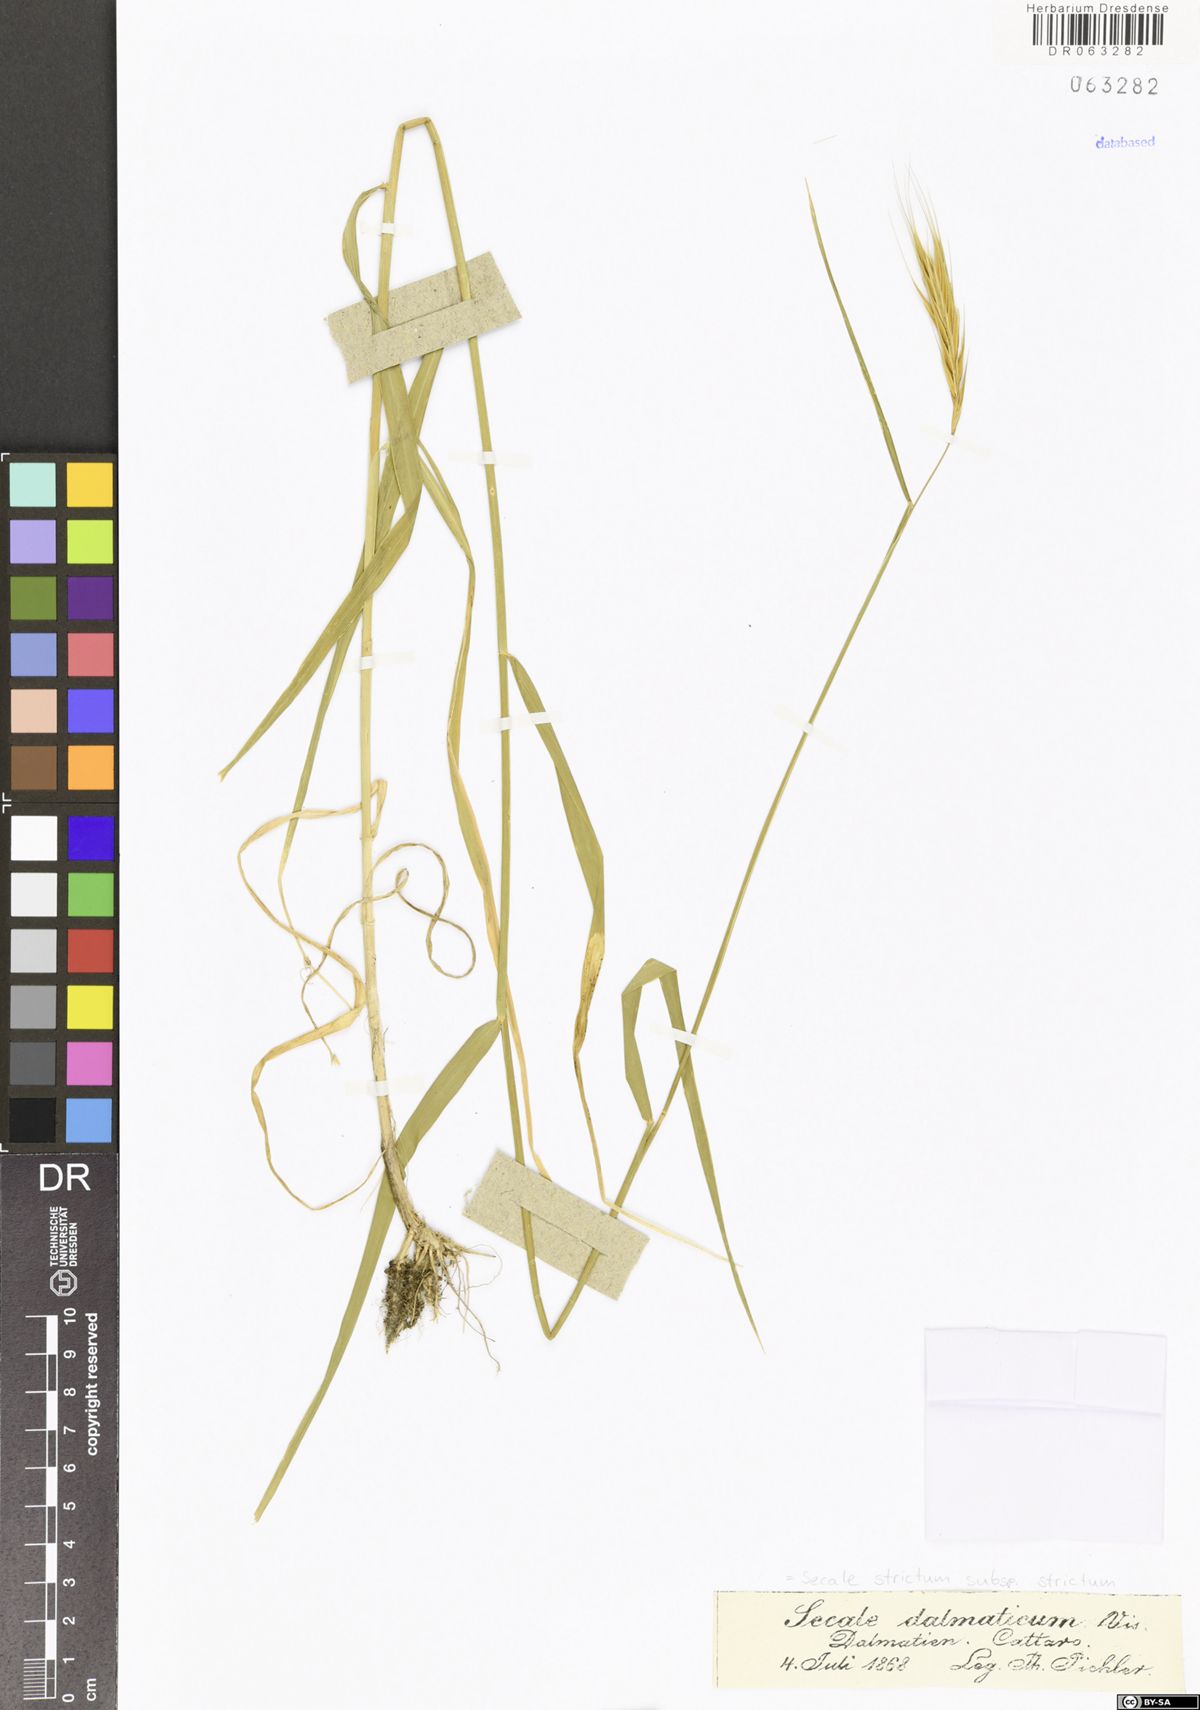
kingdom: Plantae
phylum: Tracheophyta
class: Liliopsida
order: Poales
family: Poaceae
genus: Secale
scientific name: Secale strictum
